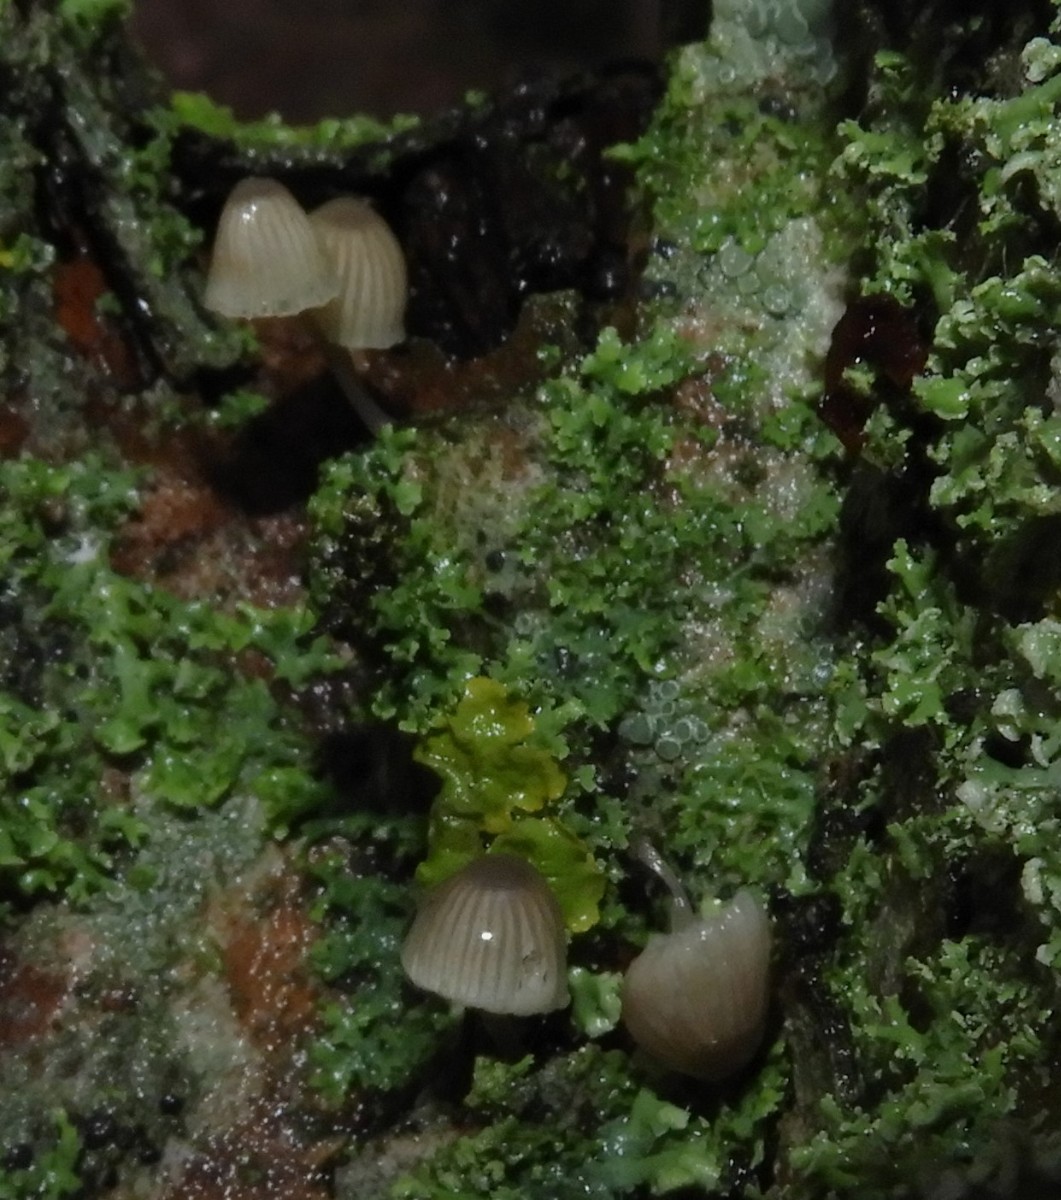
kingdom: Fungi
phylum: Basidiomycota
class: Agaricomycetes
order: Agaricales
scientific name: Agaricales
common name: champignonordenen
